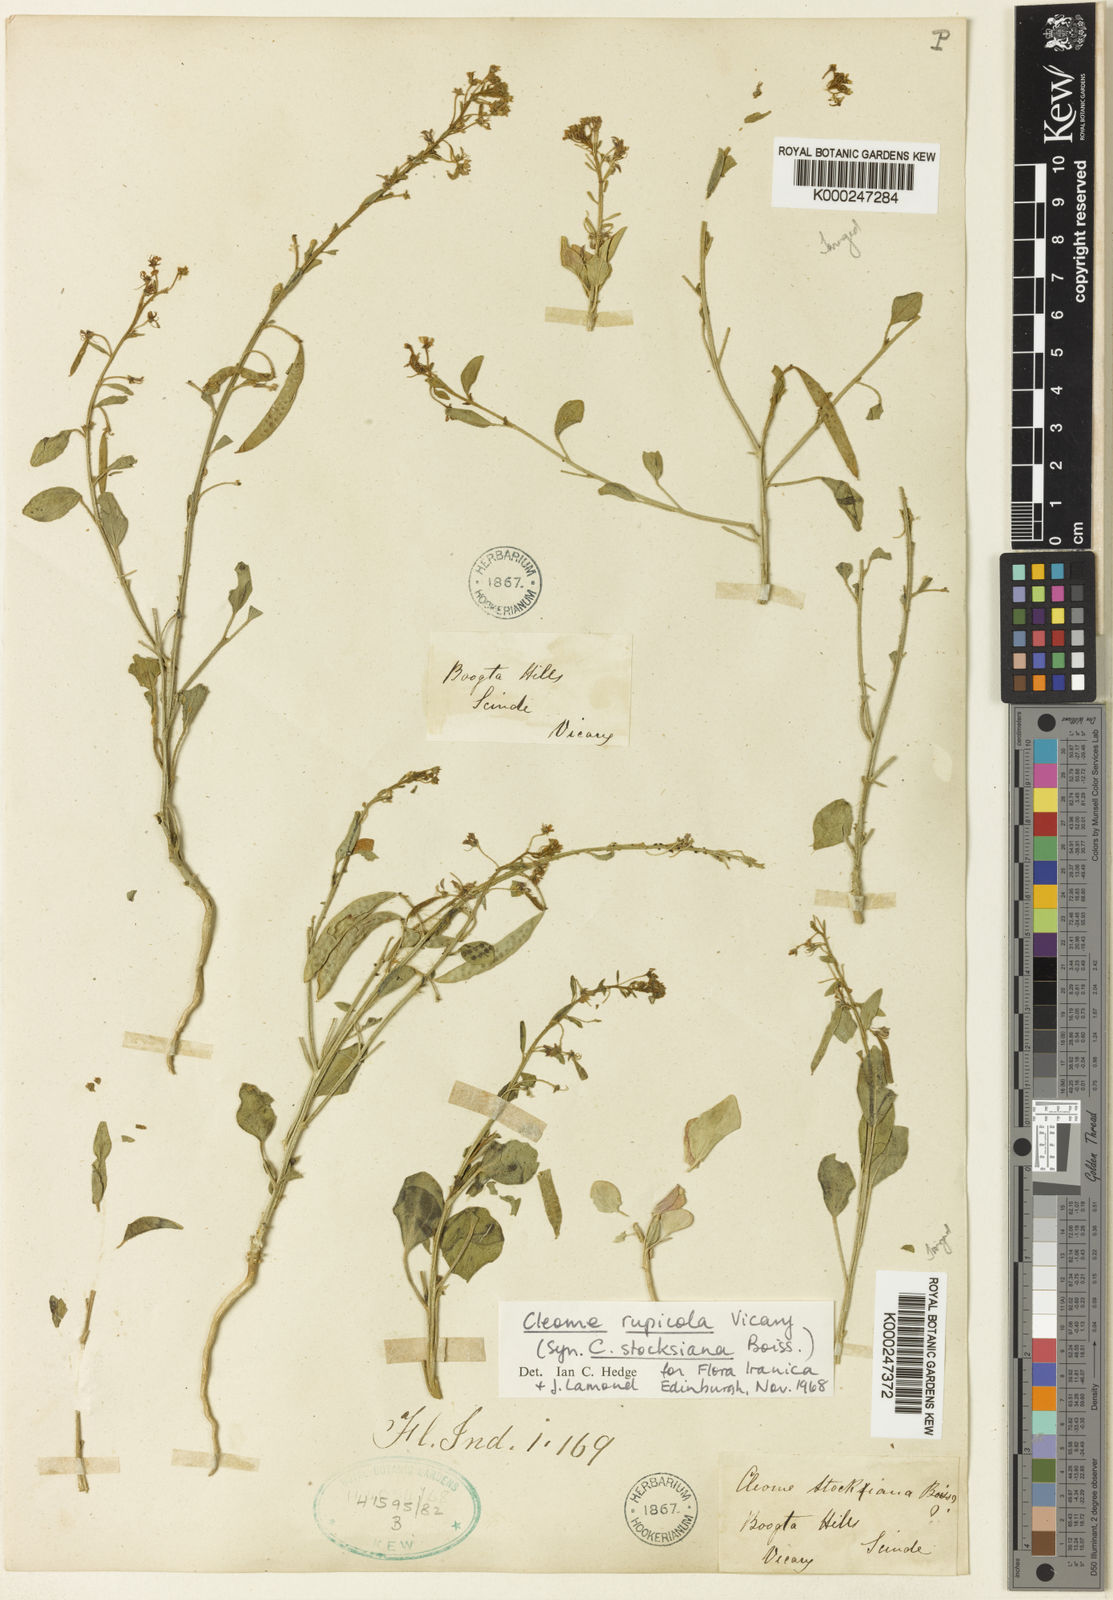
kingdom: Plantae
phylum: Tracheophyta
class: Magnoliopsida
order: Brassicales
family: Cleomaceae
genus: Cleome
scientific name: Cleome rupicola
